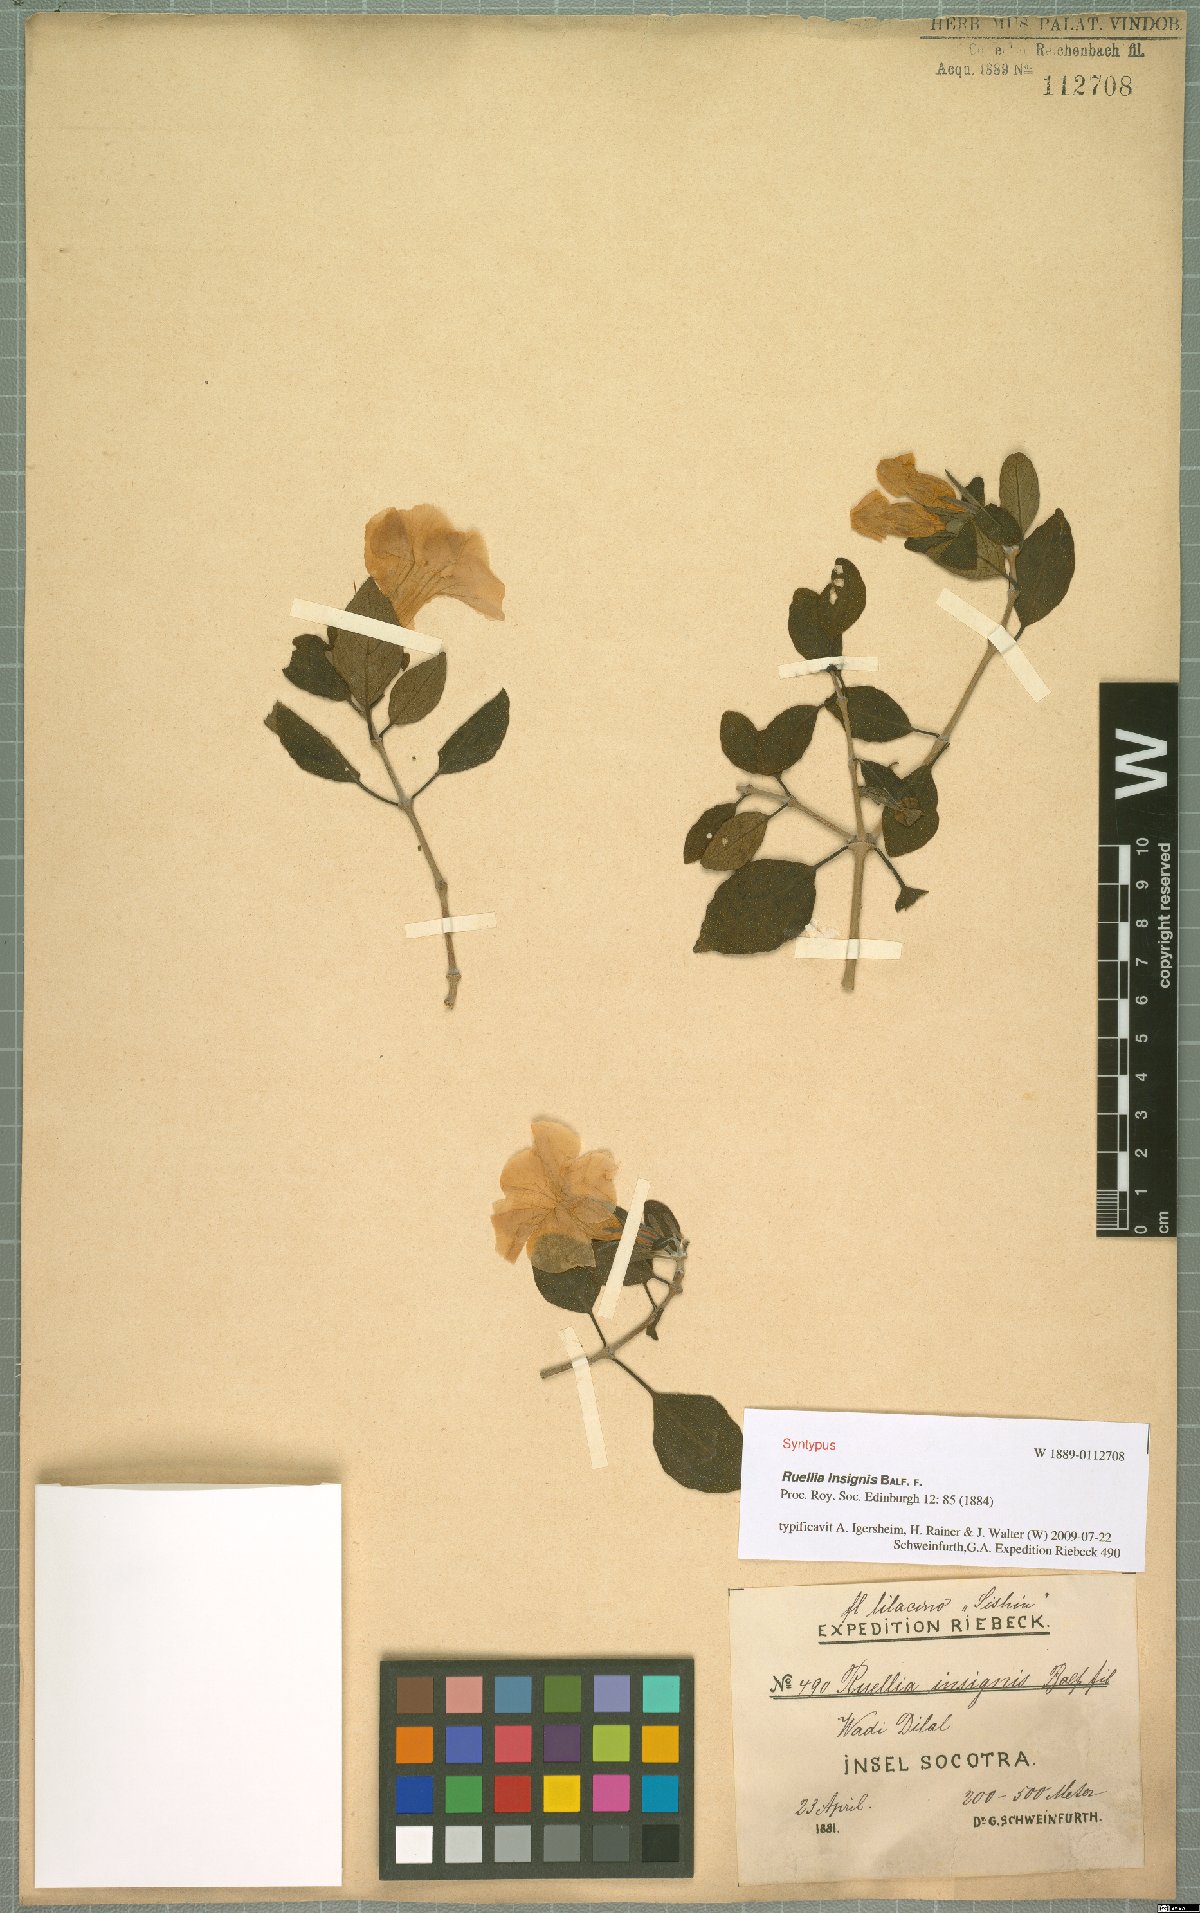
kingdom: Plantae
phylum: Tracheophyta
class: Magnoliopsida
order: Lamiales
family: Acanthaceae
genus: Ruellia
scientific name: Ruellia insignis
